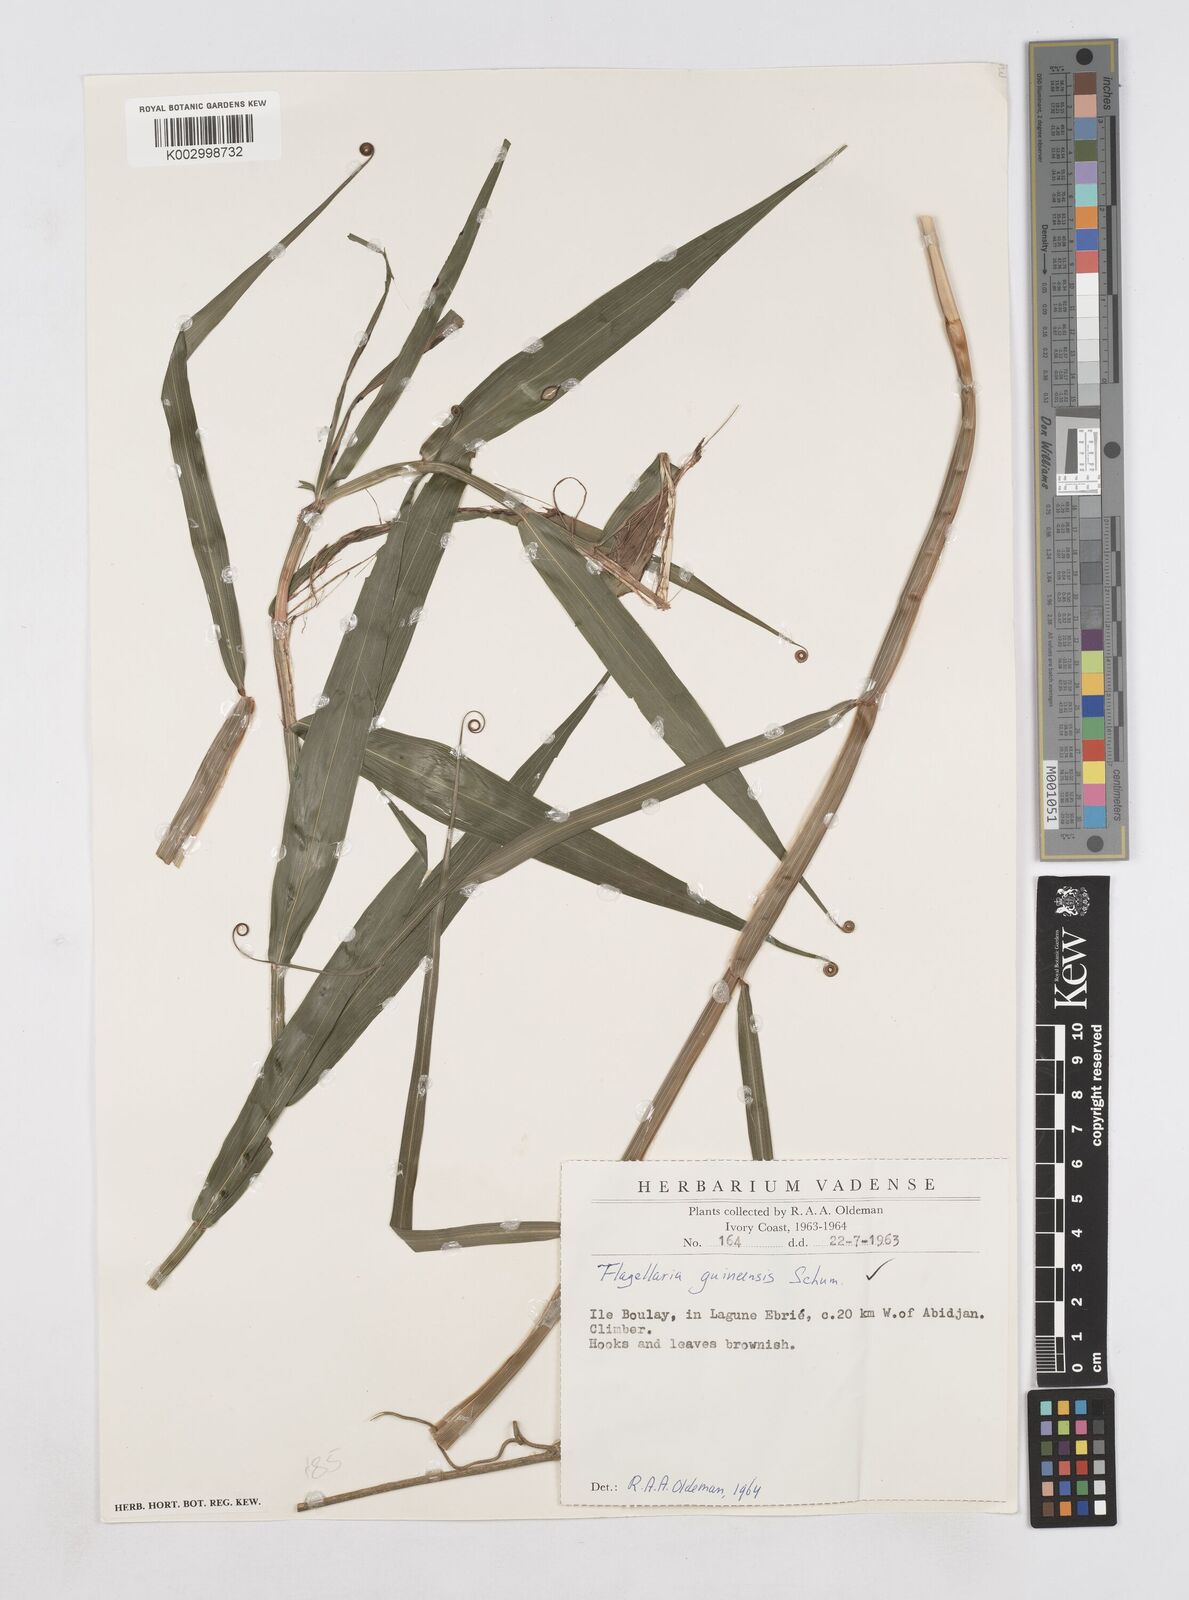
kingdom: Plantae
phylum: Tracheophyta
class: Liliopsida
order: Poales
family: Flagellariaceae
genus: Flagellaria
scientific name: Flagellaria guineensis
